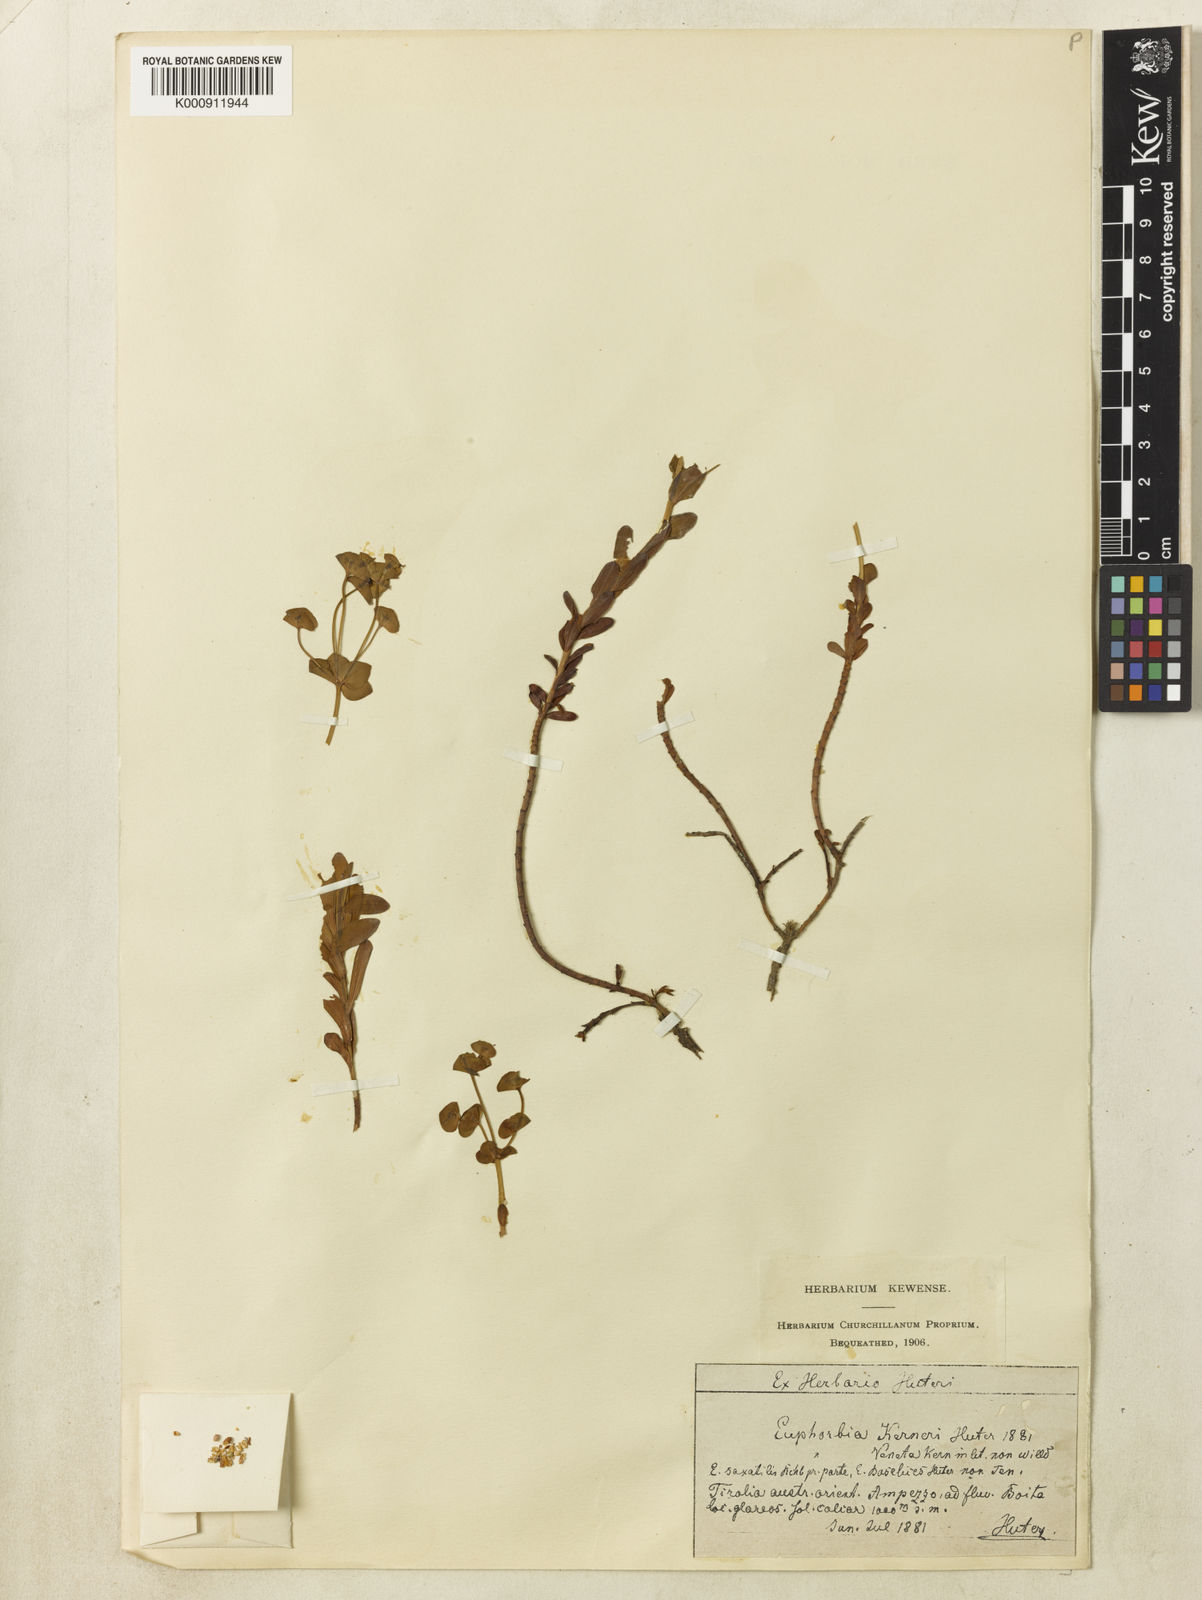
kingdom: Plantae
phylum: Tracheophyta
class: Magnoliopsida
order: Malpighiales
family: Euphorbiaceae
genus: Euphorbia
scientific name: Euphorbia kerneri
